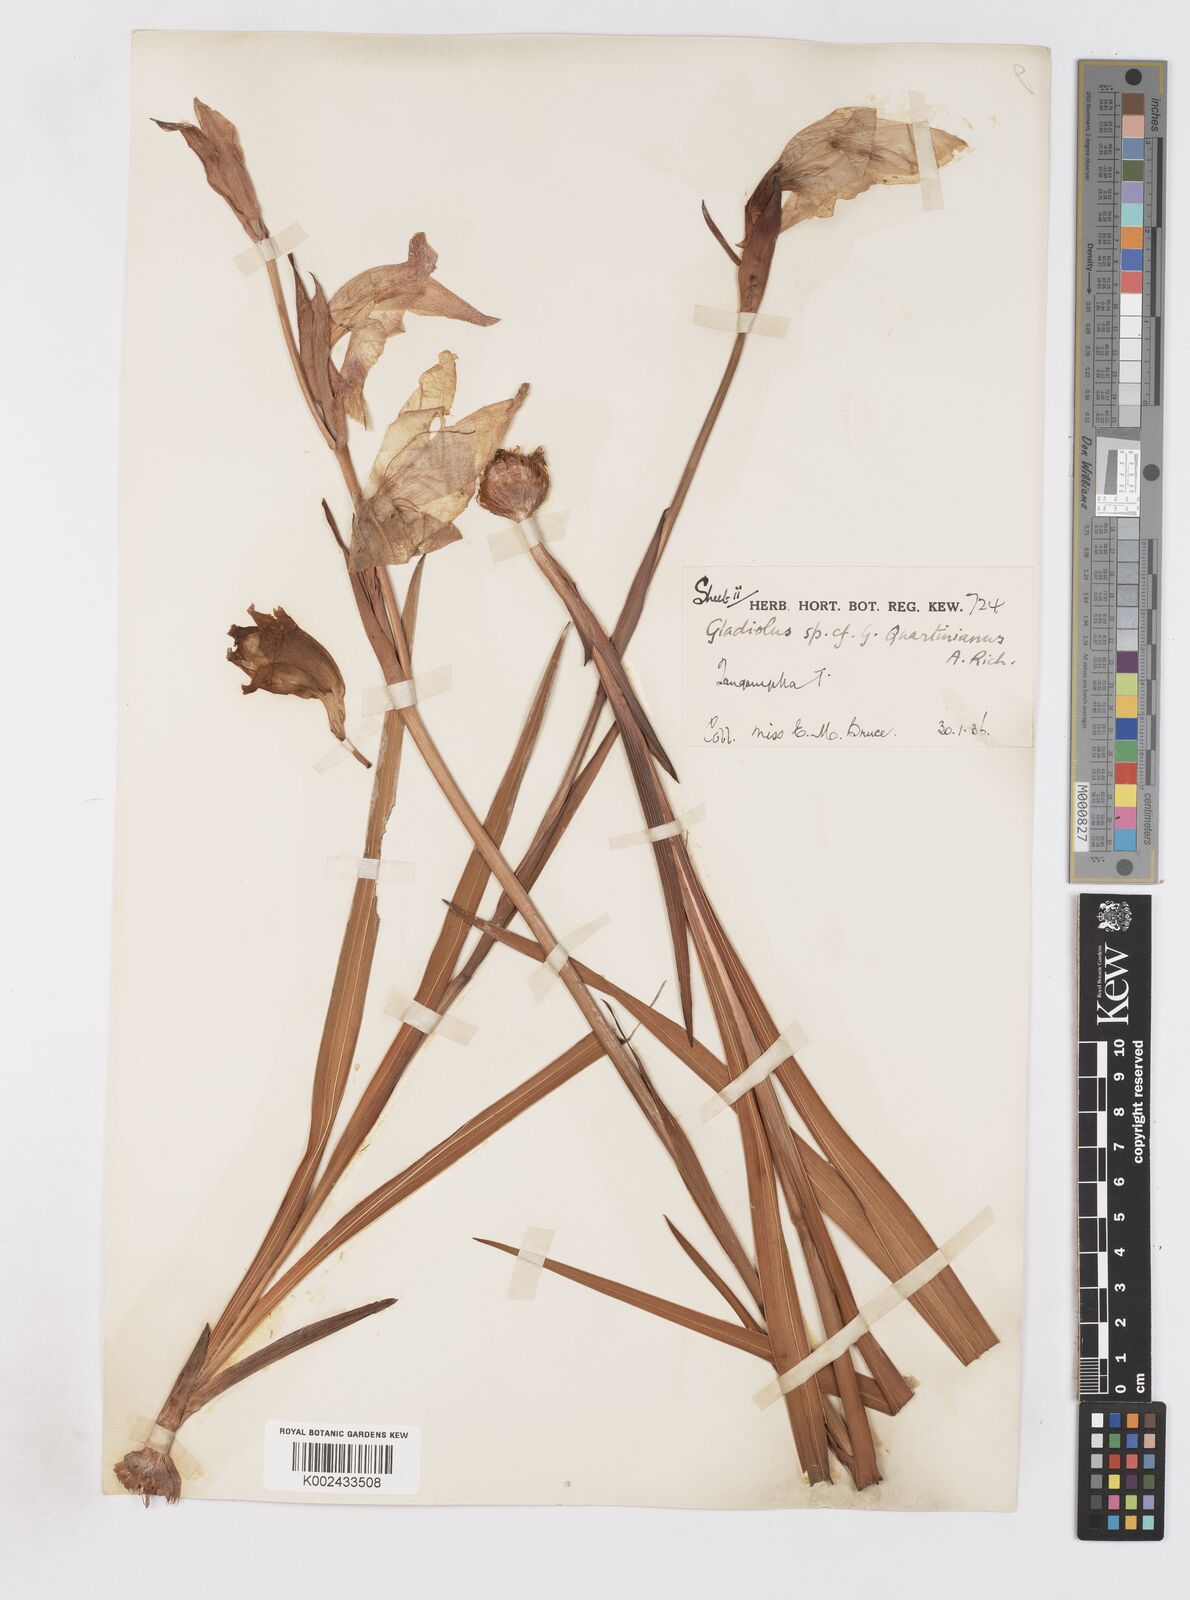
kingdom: Plantae
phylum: Tracheophyta
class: Liliopsida
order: Asparagales
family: Iridaceae
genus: Gladiolus
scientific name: Gladiolus dalenii
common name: Cornflag
